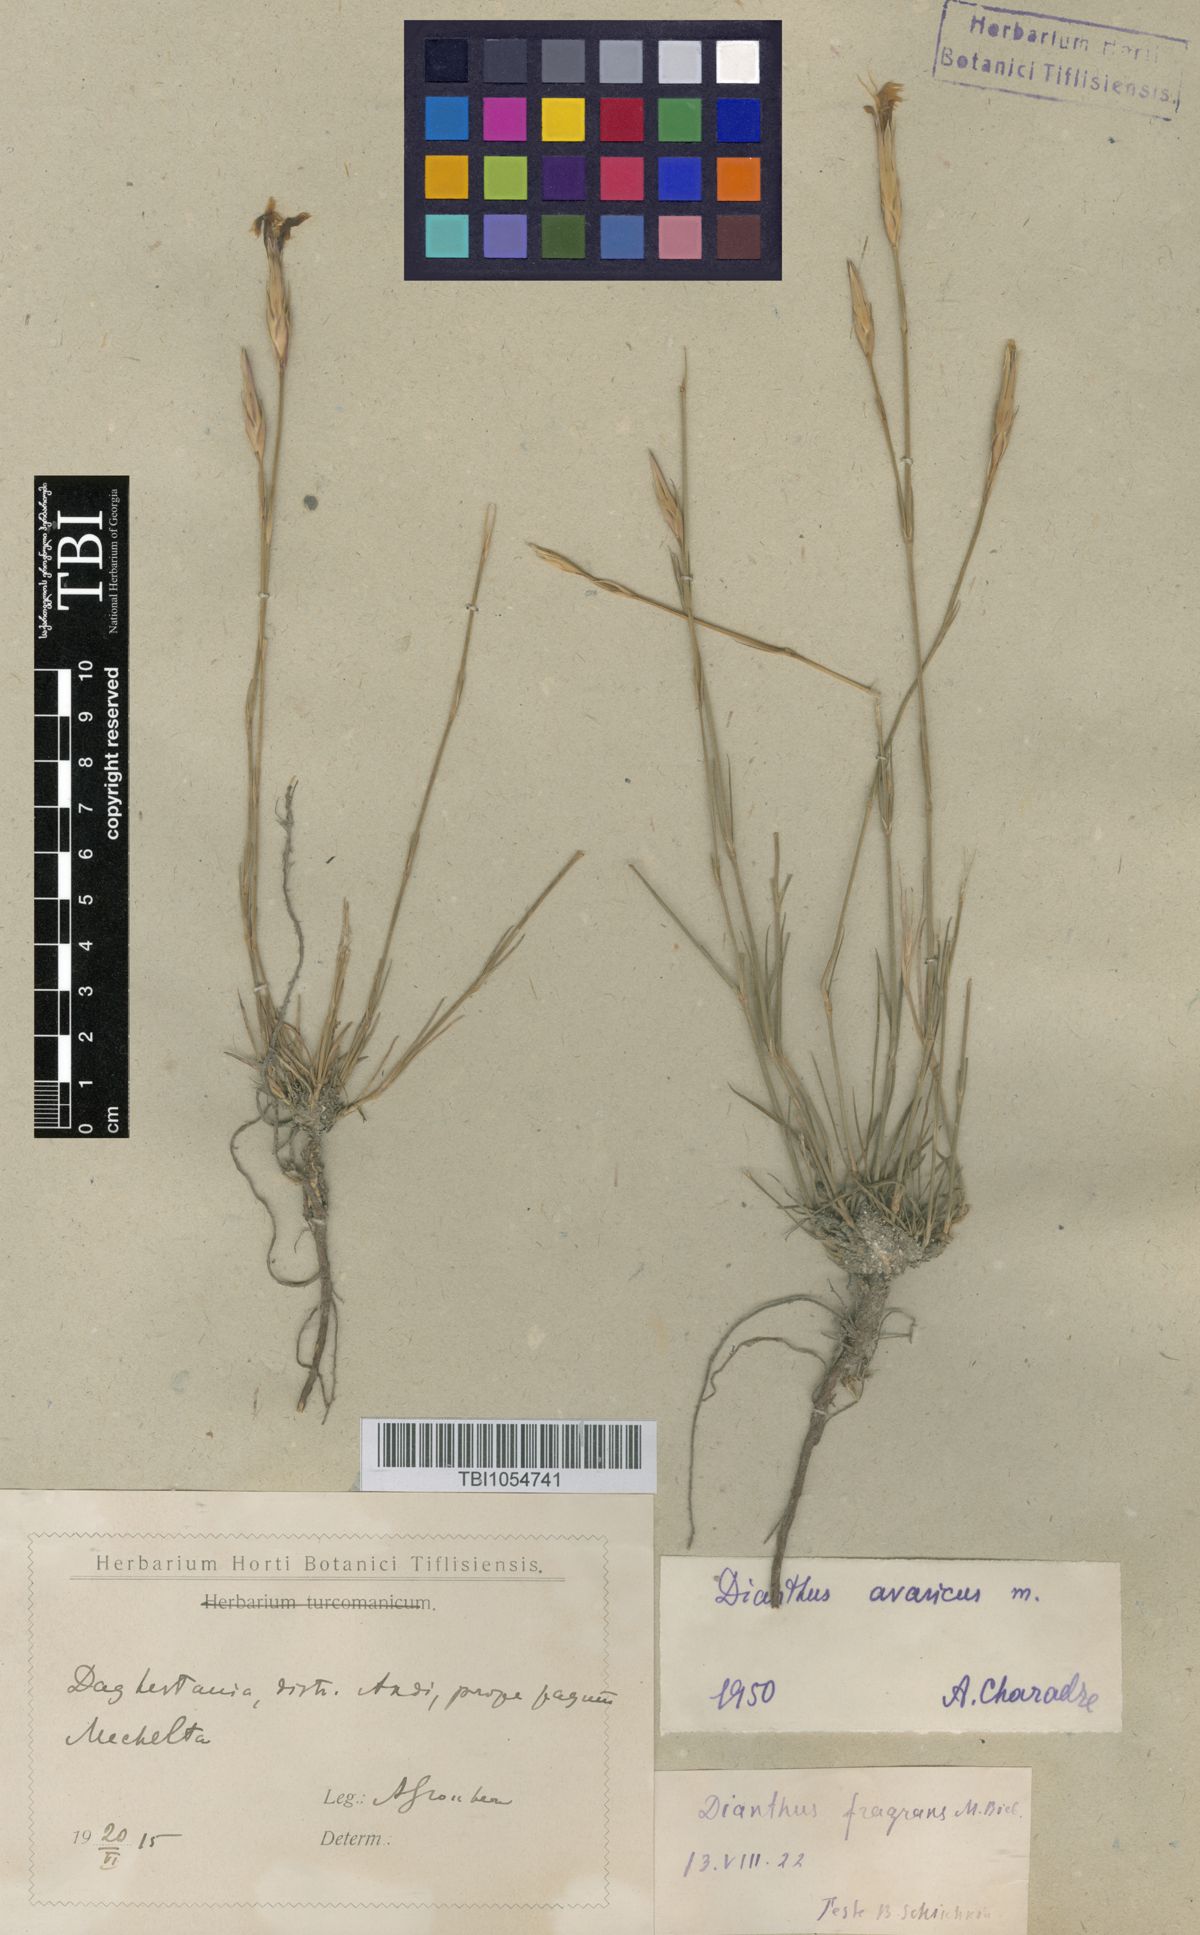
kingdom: Plantae
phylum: Tracheophyta
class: Magnoliopsida
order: Caryophyllales
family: Caryophyllaceae
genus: Dianthus
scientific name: Dianthus
